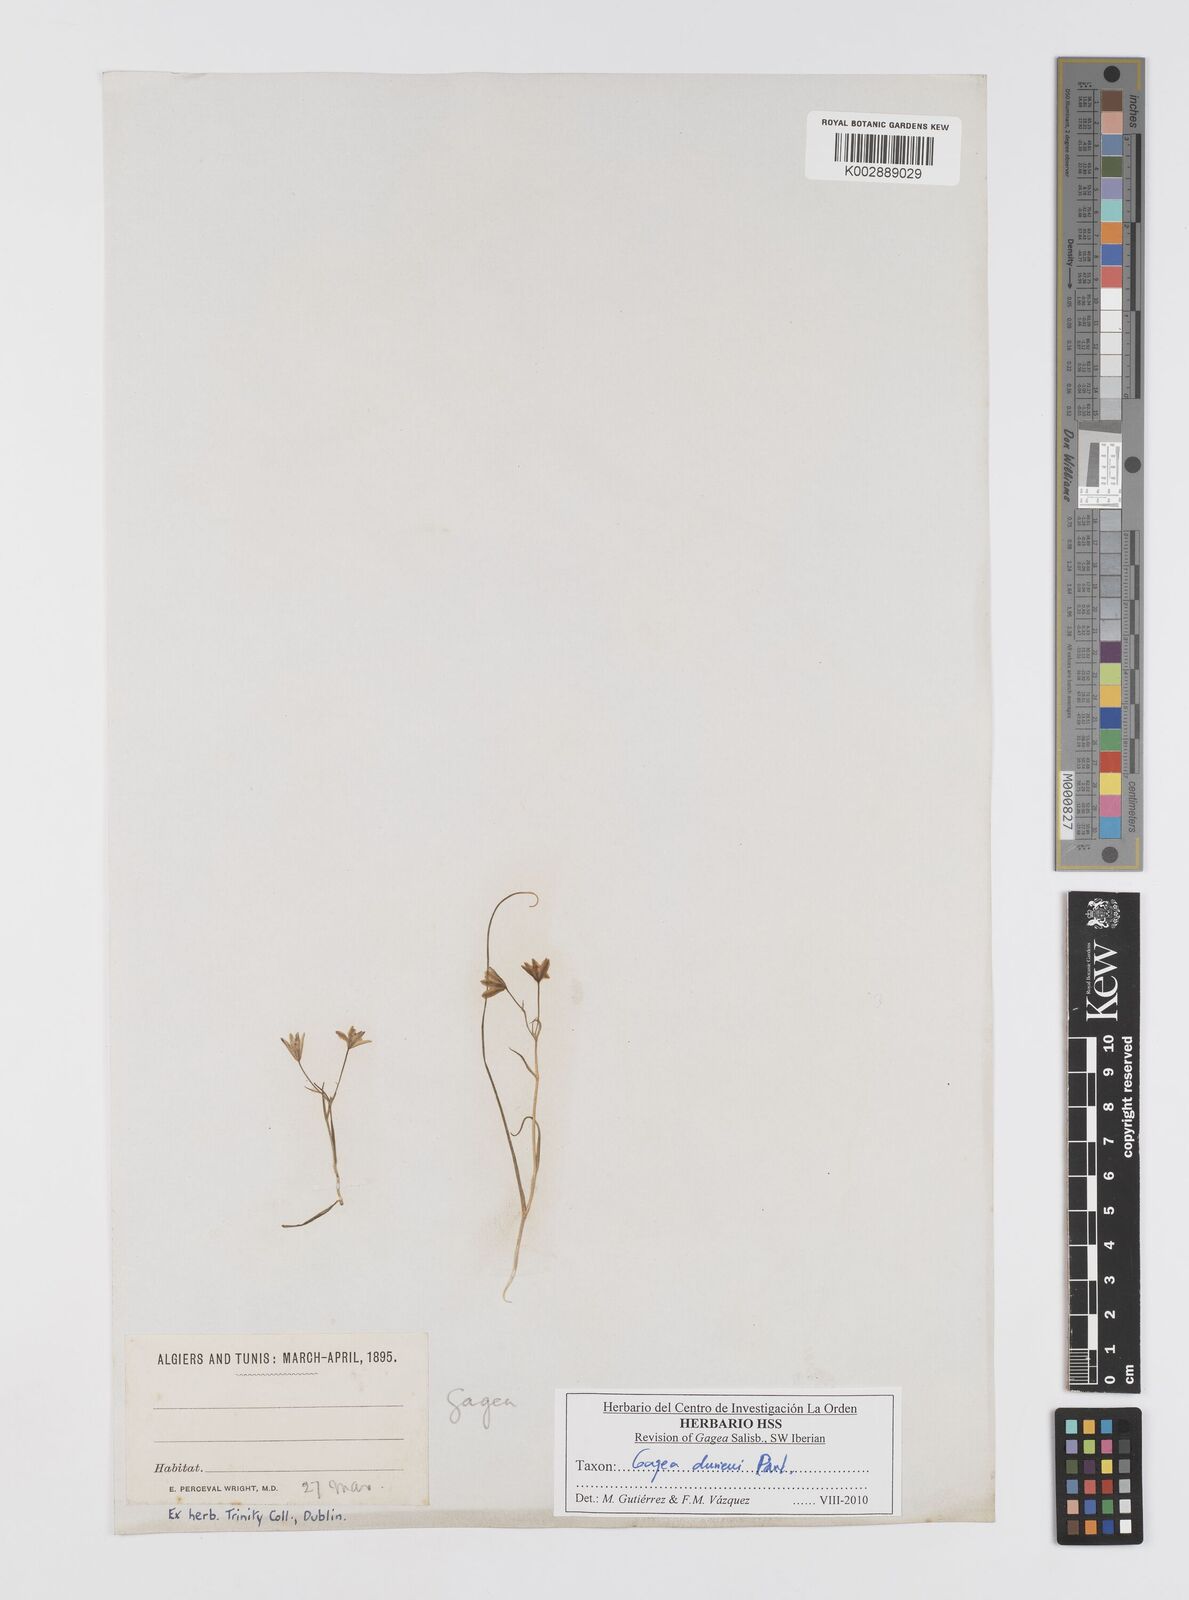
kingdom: Plantae
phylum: Tracheophyta
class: Liliopsida
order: Liliales
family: Liliaceae
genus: Gagea
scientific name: Gagea durieui
